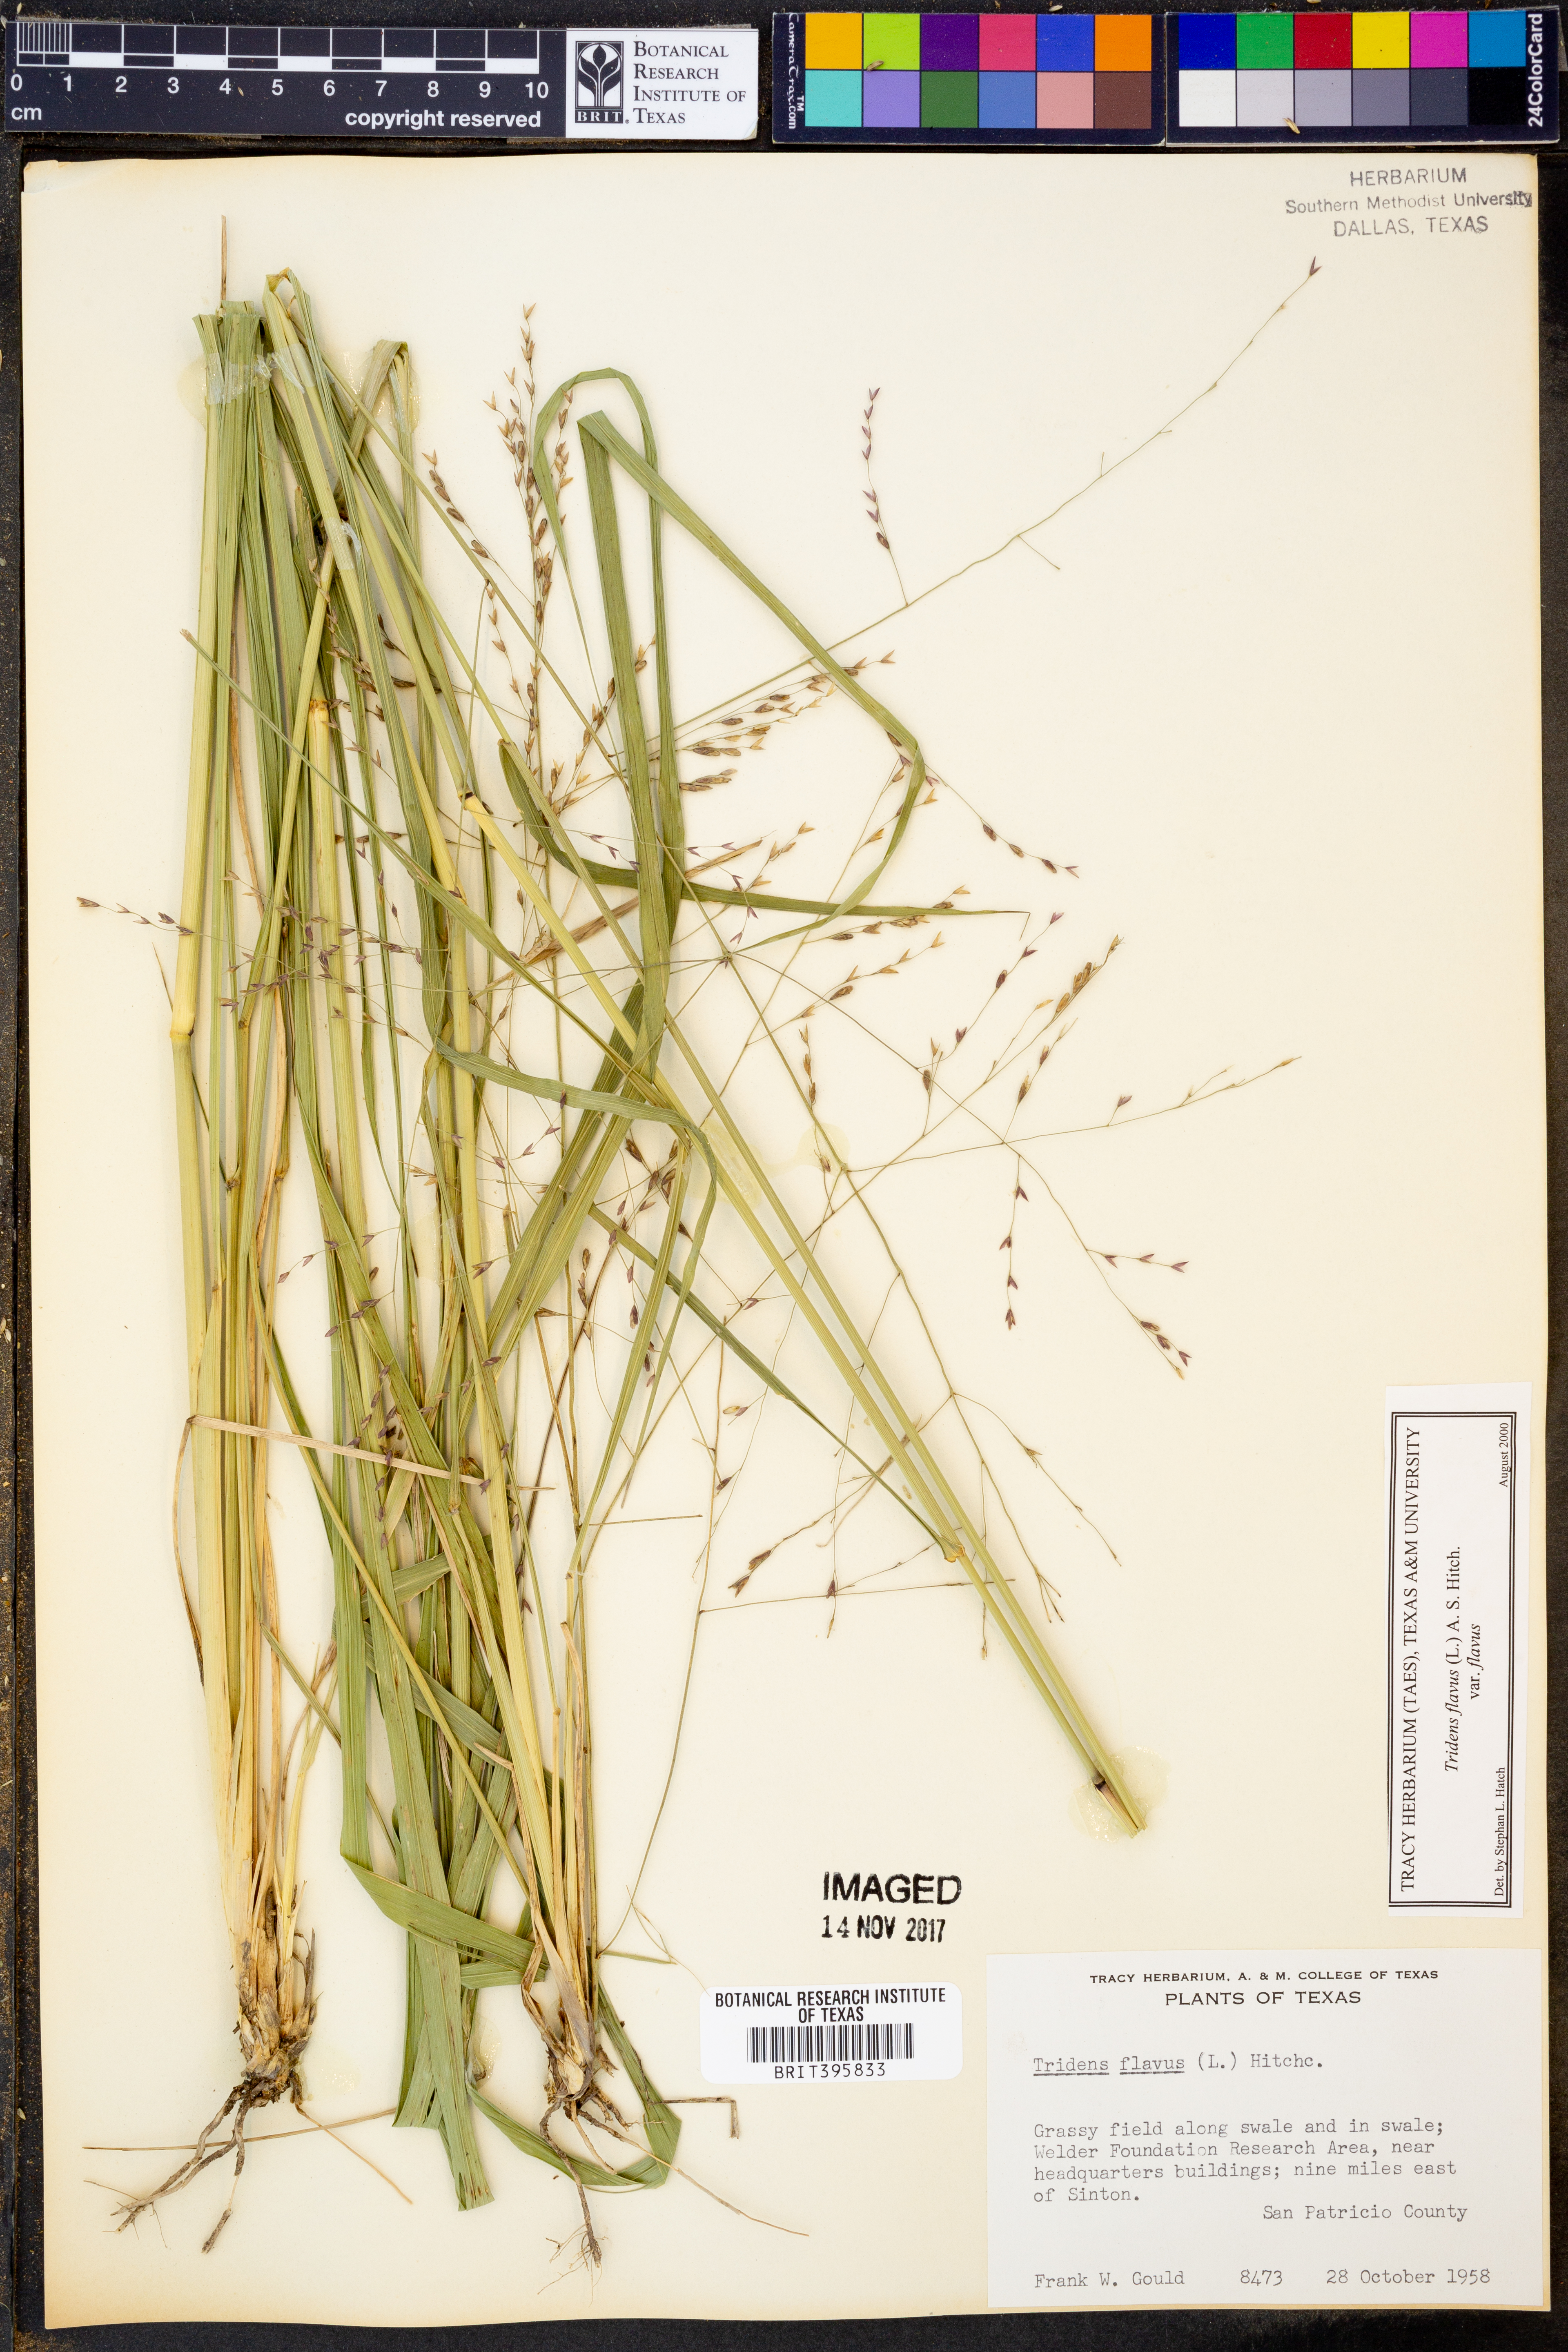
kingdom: Plantae
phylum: Tracheophyta
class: Liliopsida
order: Poales
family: Poaceae
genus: Tridens
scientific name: Tridens flavus
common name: Purpletop
